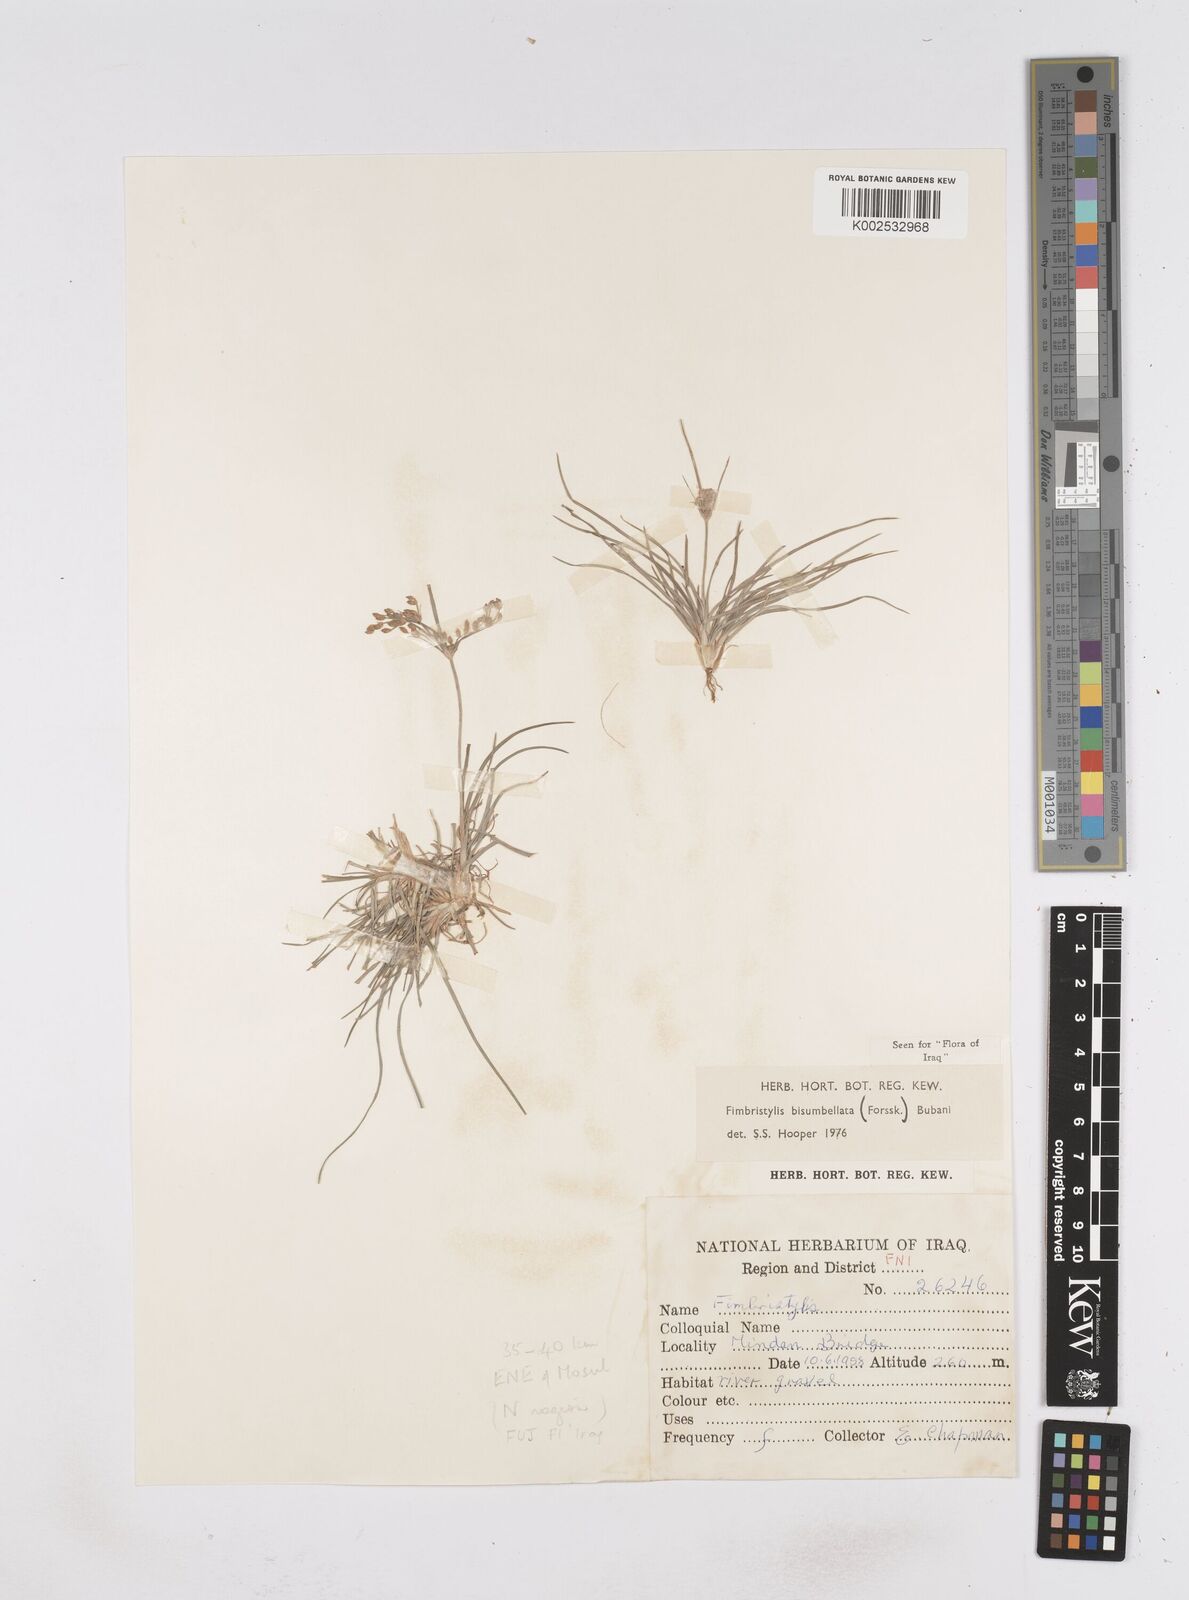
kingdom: Plantae
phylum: Tracheophyta
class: Liliopsida
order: Poales
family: Cyperaceae
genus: Fimbristylis
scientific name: Fimbristylis bisumbellata
